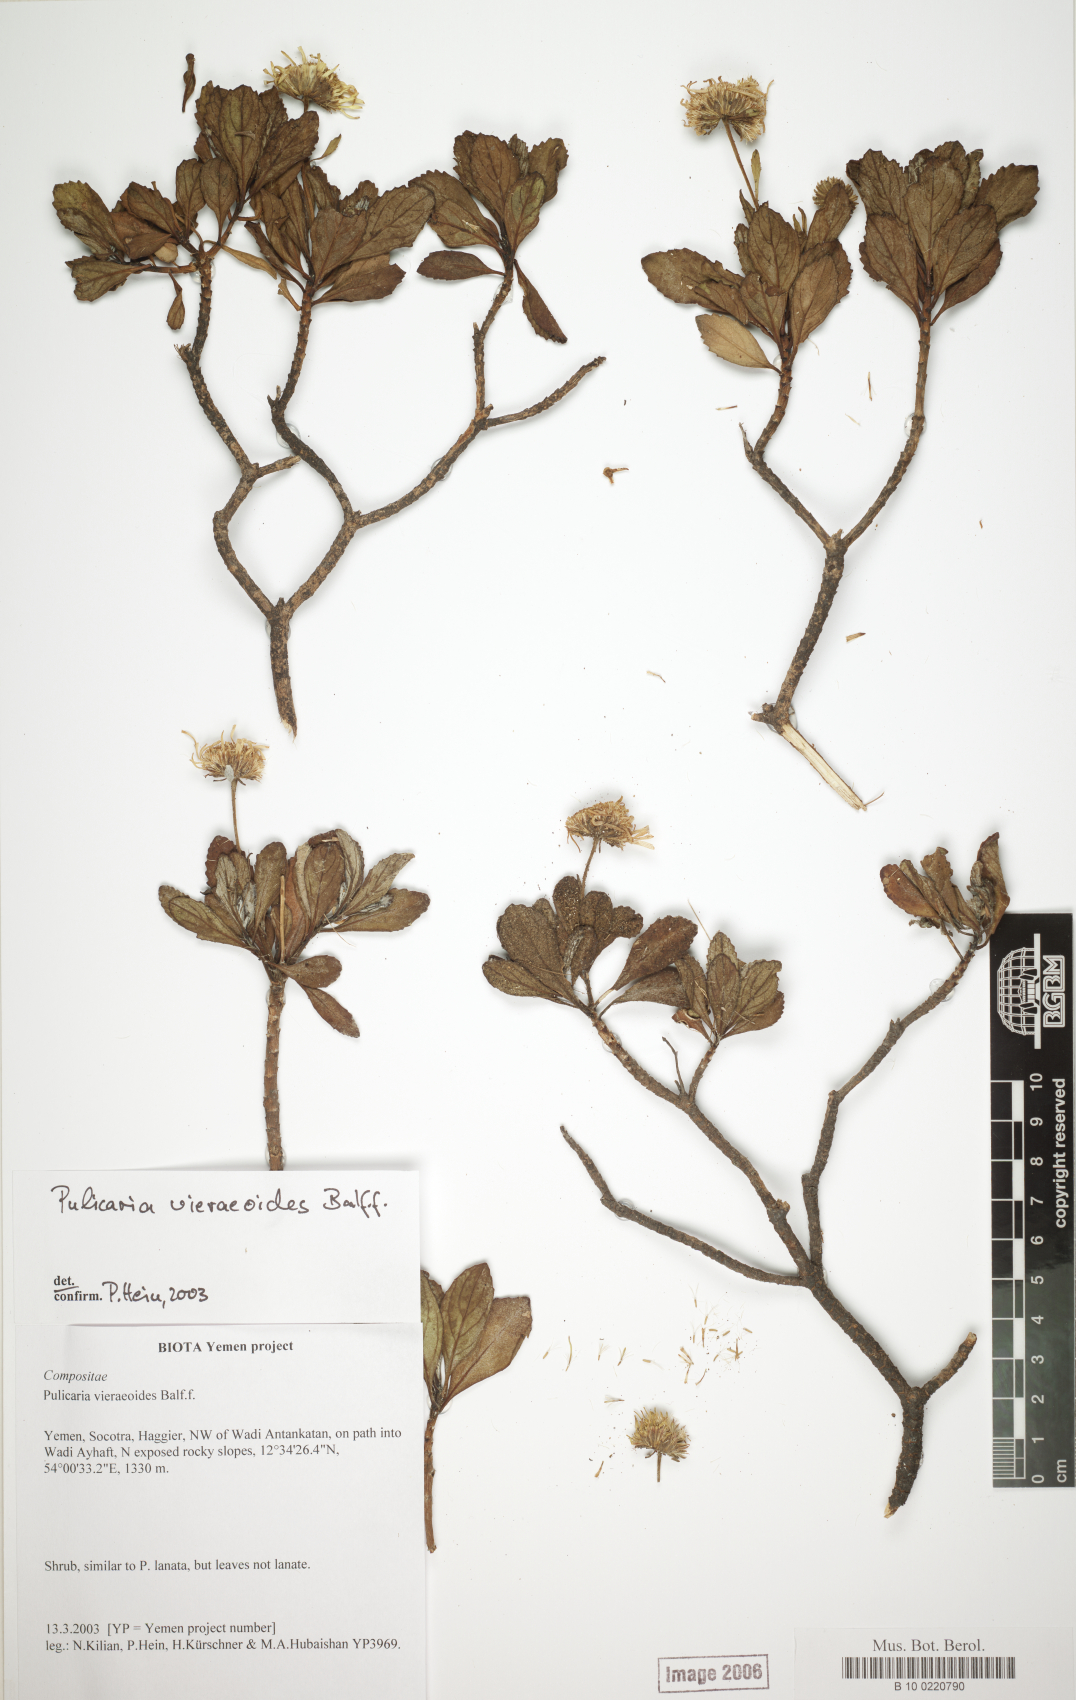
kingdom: Plantae
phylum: Tracheophyta
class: Magnoliopsida
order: Asterales
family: Asteraceae
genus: Pulicaria
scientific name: Pulicaria vieraeoides
